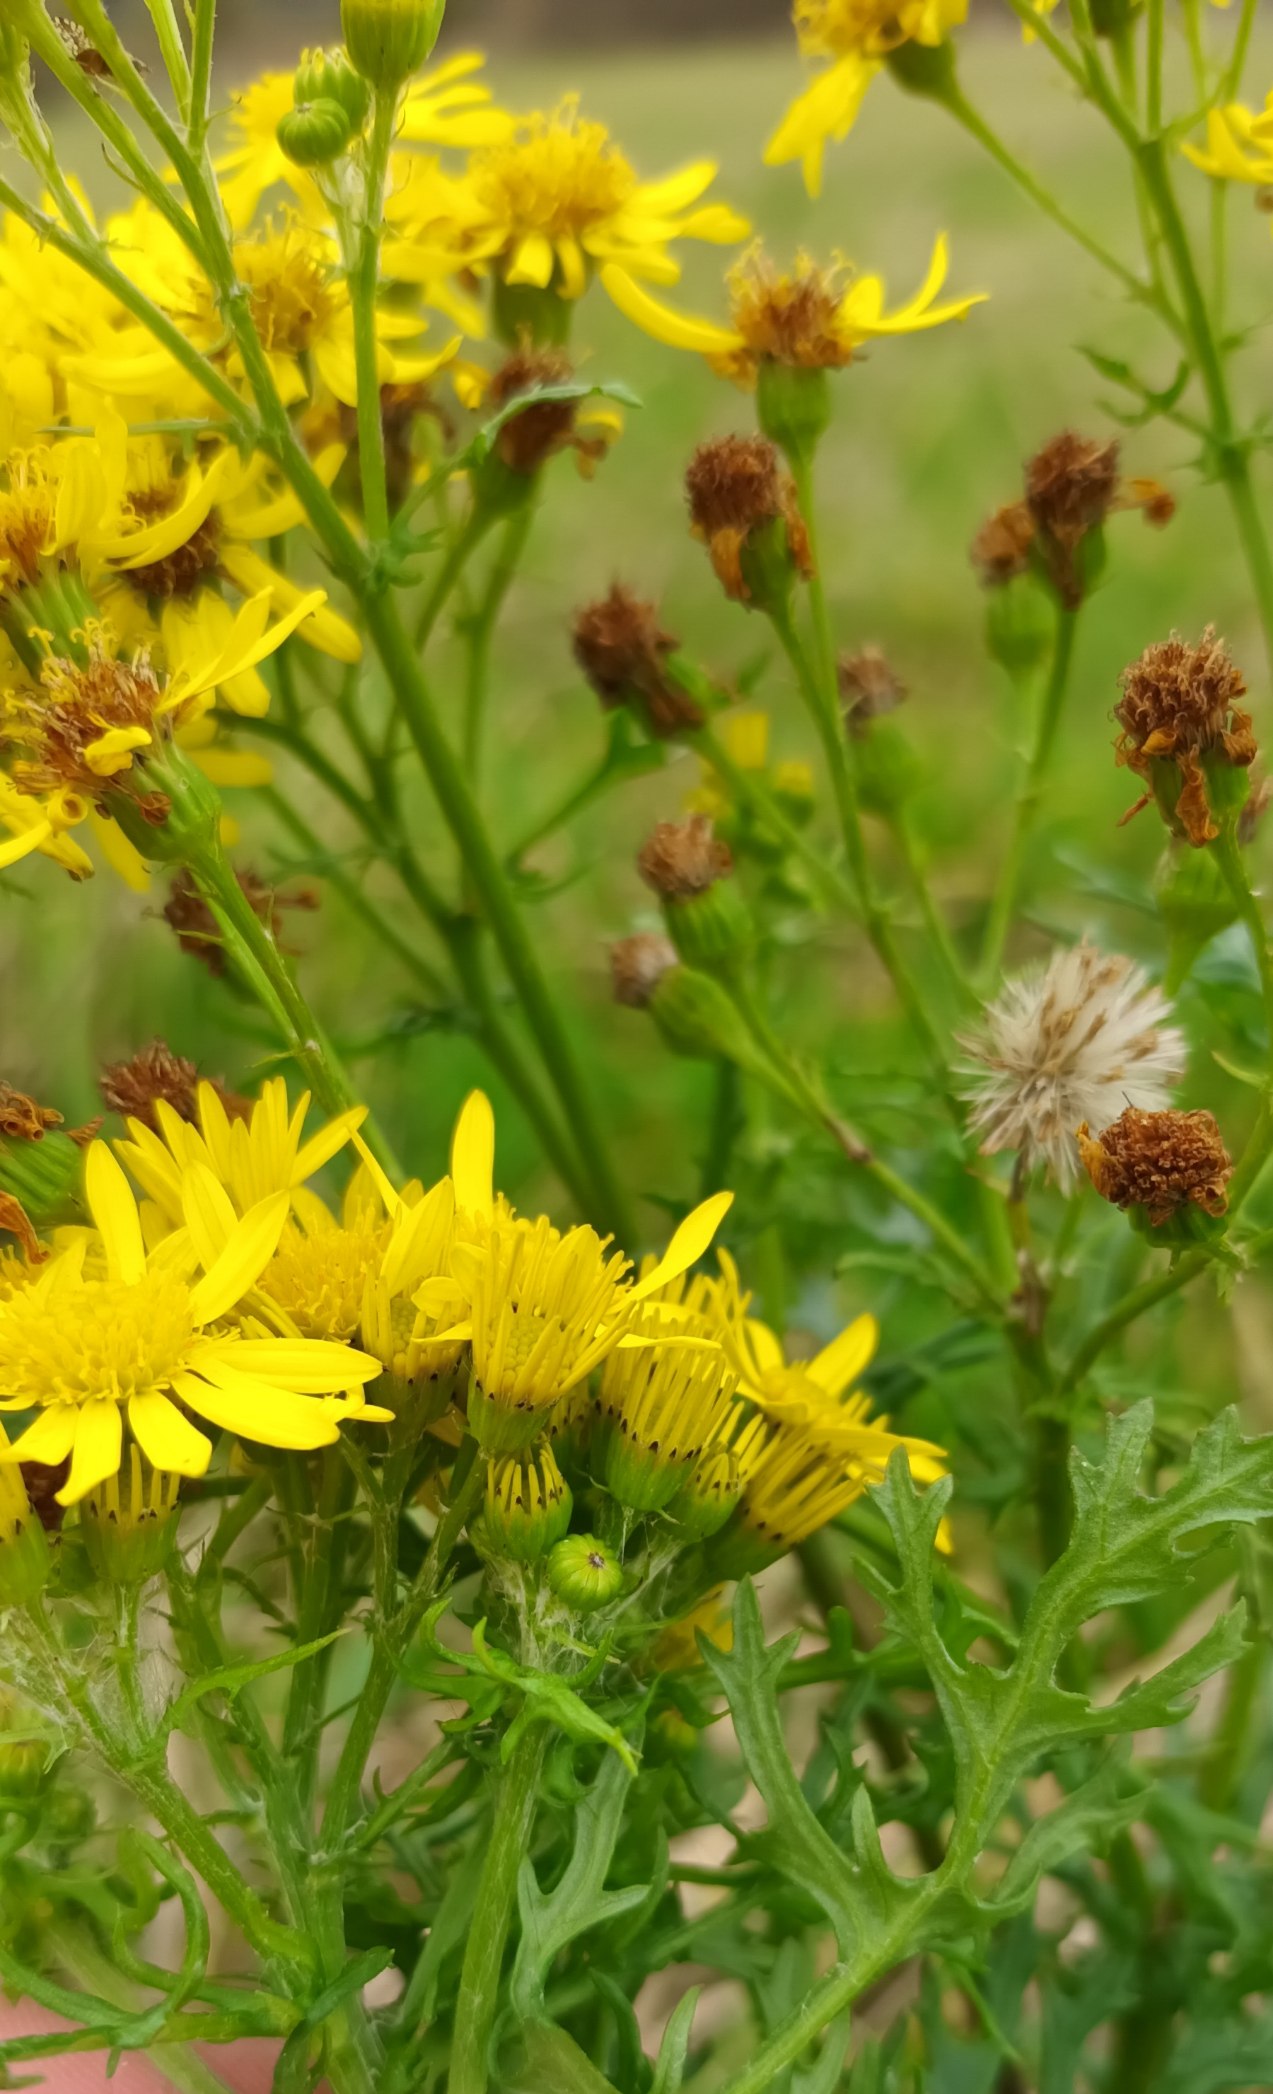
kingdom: Plantae
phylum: Tracheophyta
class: Magnoliopsida
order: Asterales
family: Asteraceae
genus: Jacobaea
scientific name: Jacobaea vulgaris
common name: Eng-brandbæger
